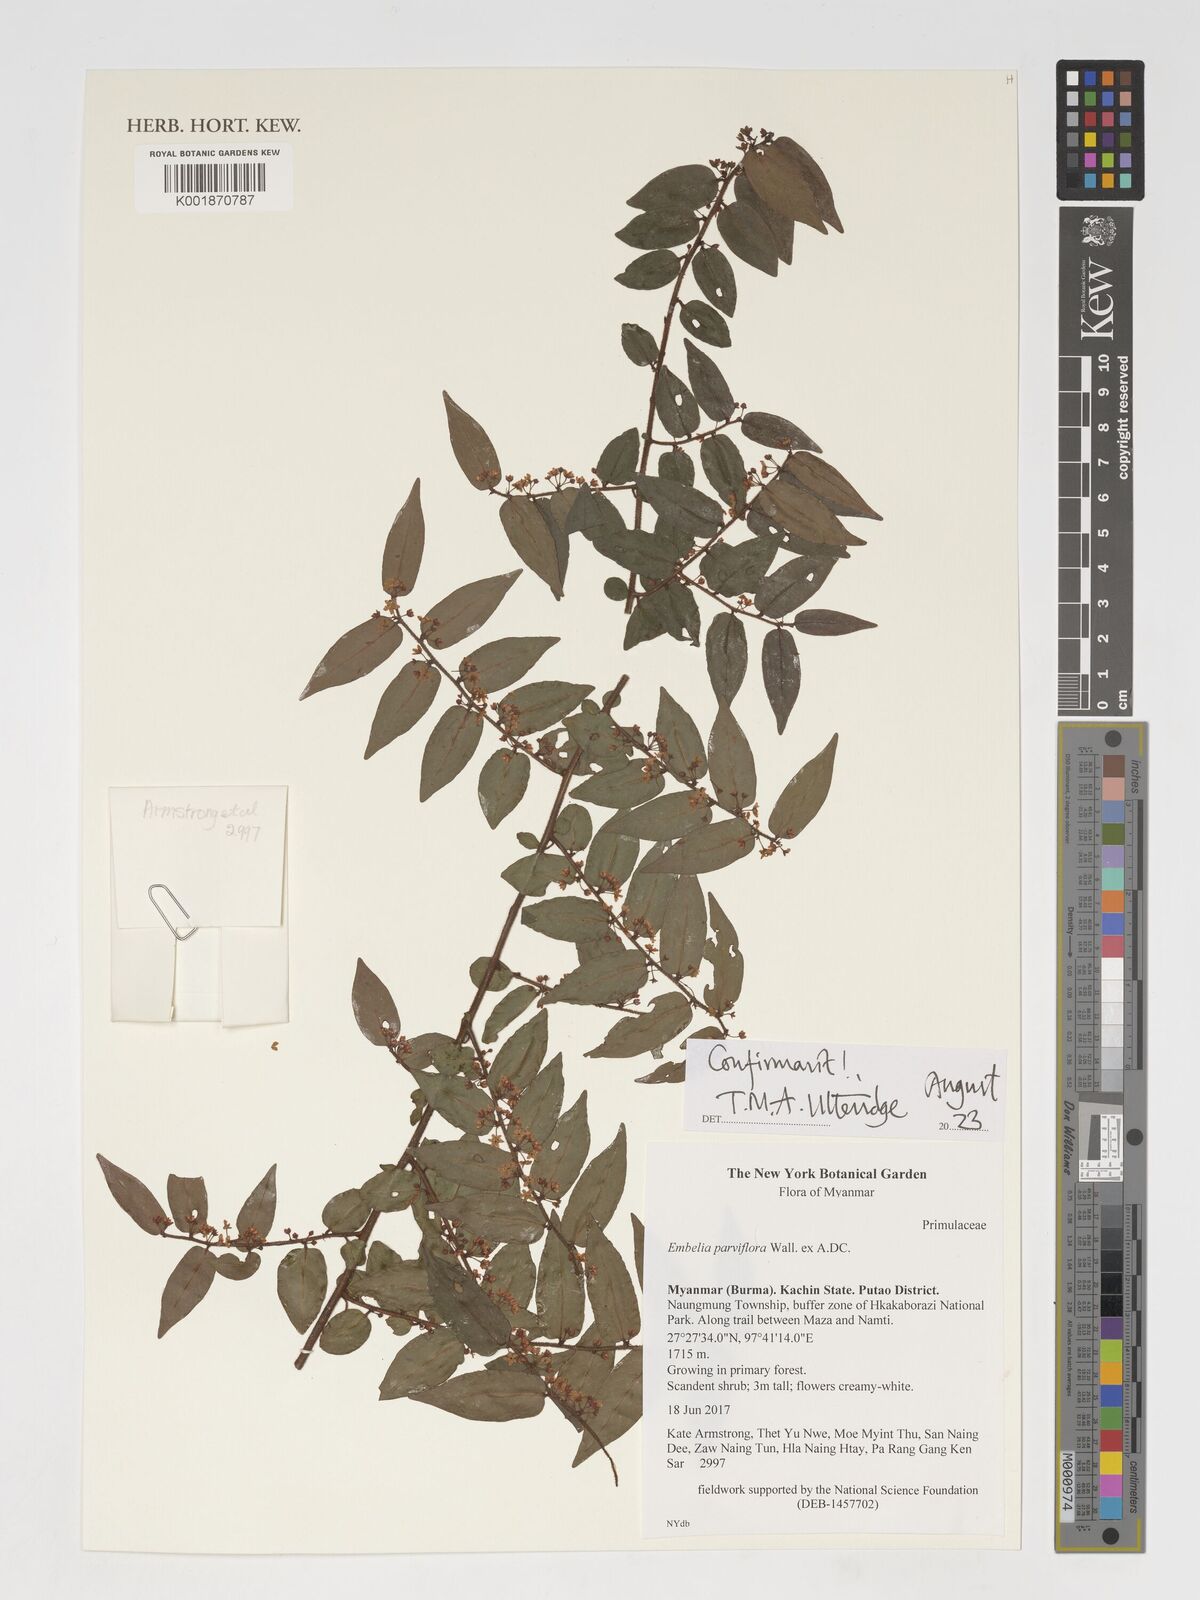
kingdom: Plantae
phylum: Tracheophyta
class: Magnoliopsida
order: Ericales
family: Primulaceae
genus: Embelia
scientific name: Embelia parviflora
